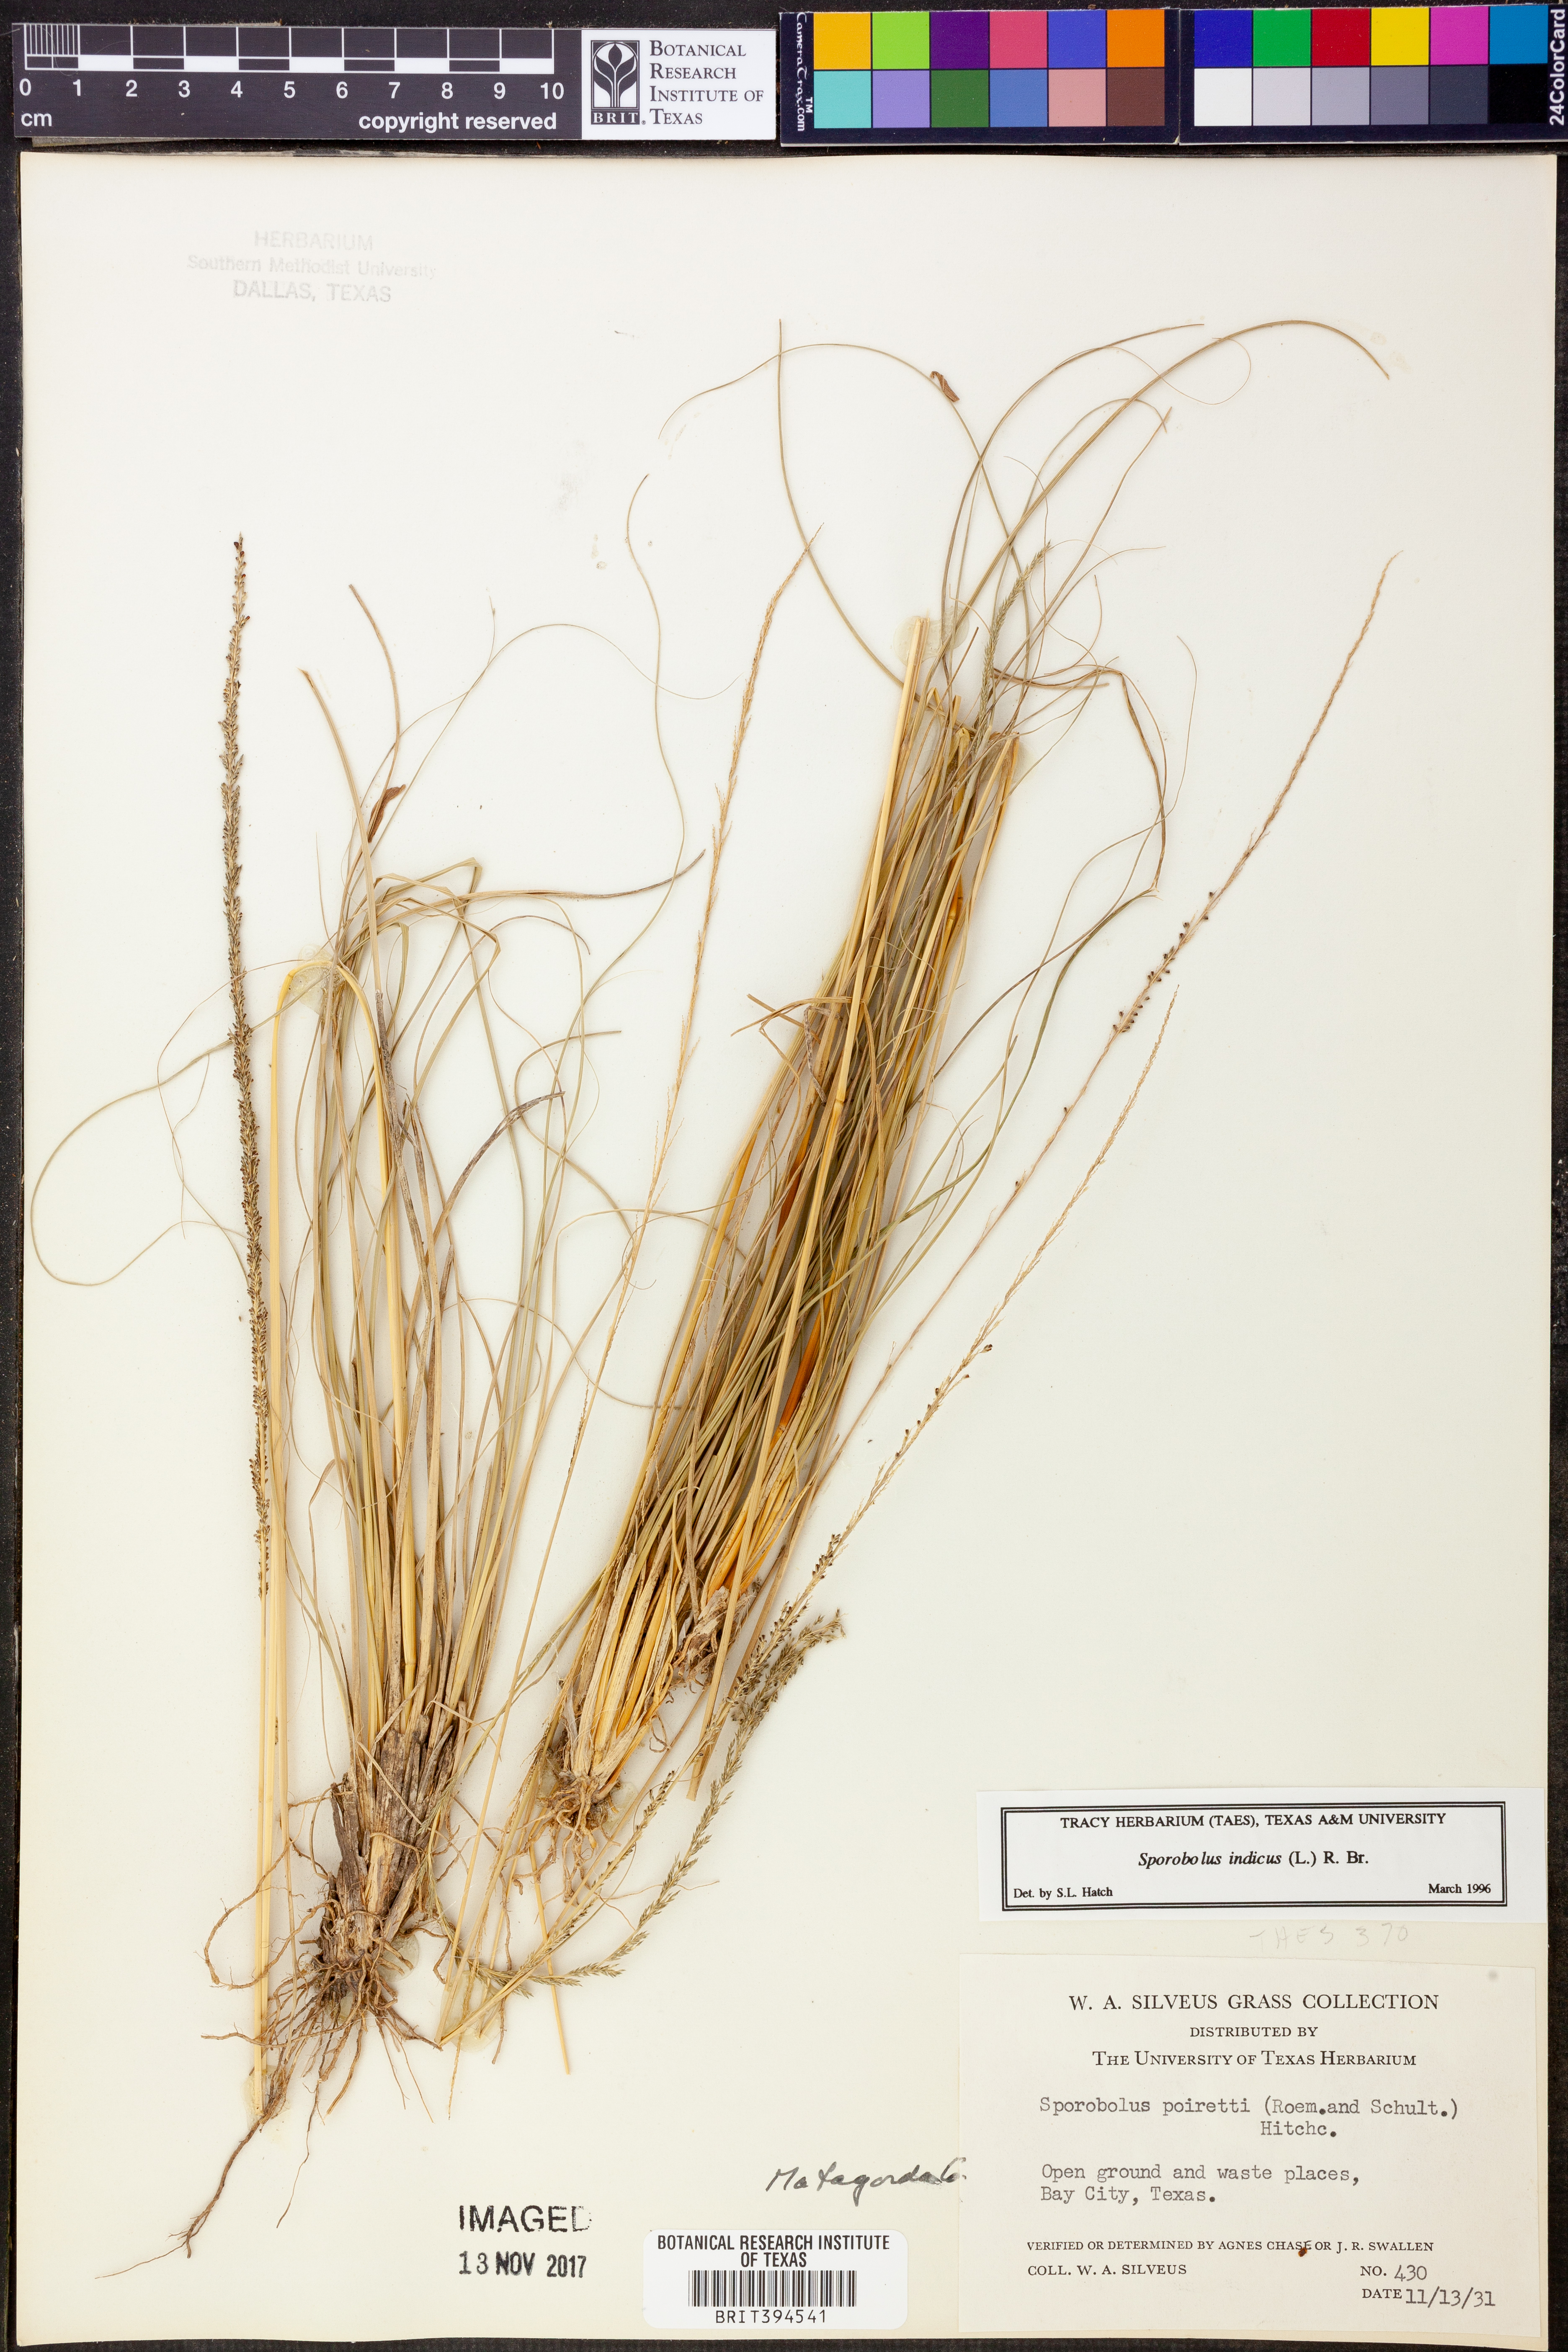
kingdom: Plantae
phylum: Tracheophyta
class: Liliopsida
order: Poales
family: Poaceae
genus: Sporobolus
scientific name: Sporobolus indicus
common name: Smut grass
